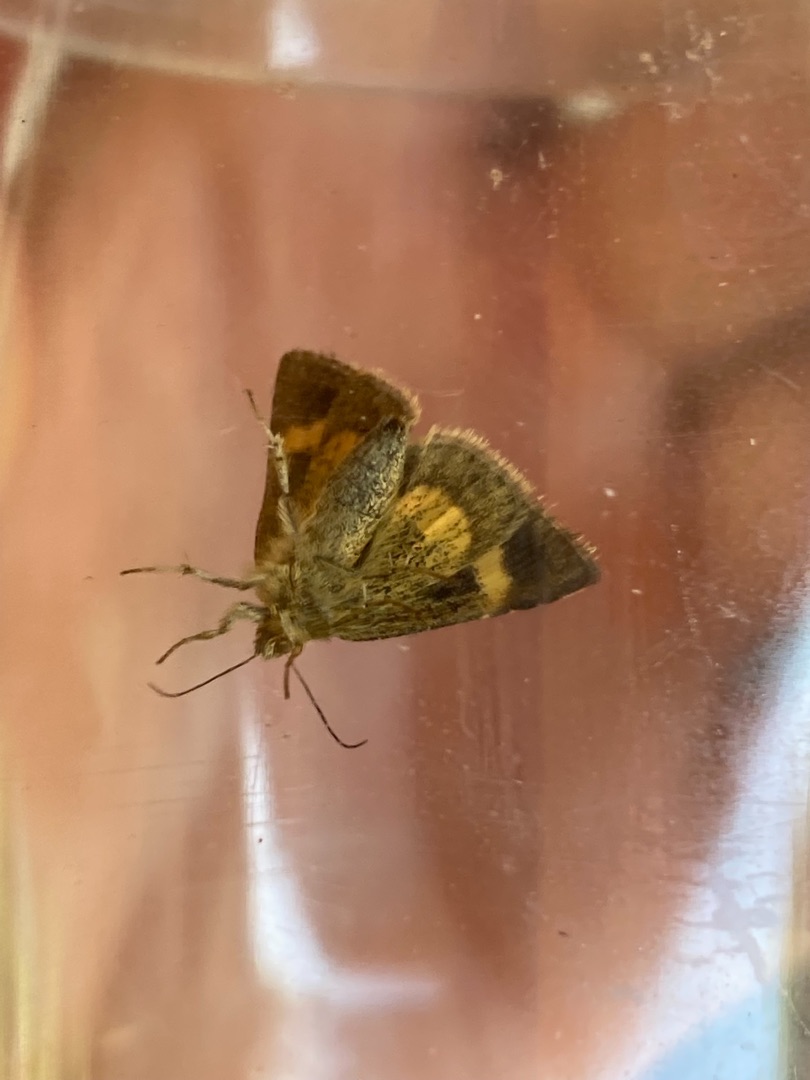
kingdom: Animalia
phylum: Arthropoda
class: Insecta
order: Lepidoptera
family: Noctuidae
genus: Panemeria
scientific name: Panemeria tenebrata
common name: Hønsetarm-glansugle
